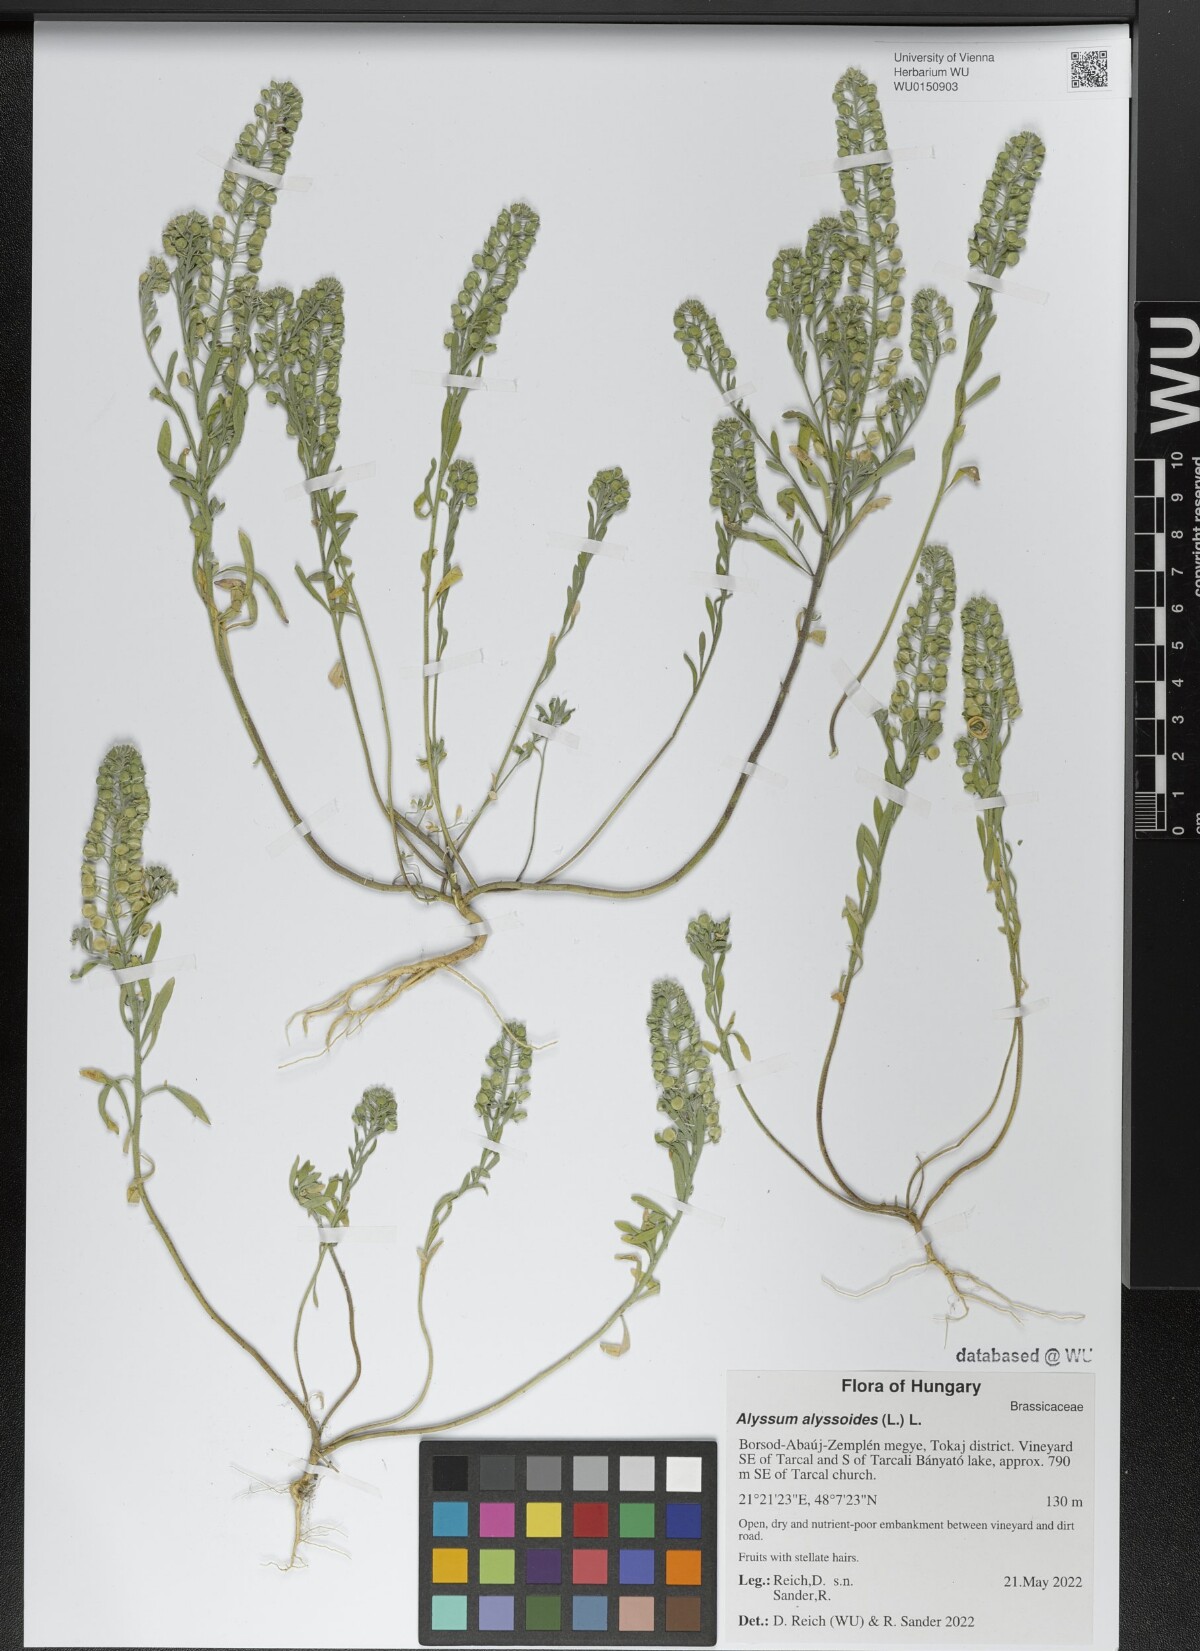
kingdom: Plantae
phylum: Tracheophyta
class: Magnoliopsida
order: Brassicales
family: Brassicaceae
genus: Alyssum
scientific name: Alyssum alyssoides
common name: Small alison
